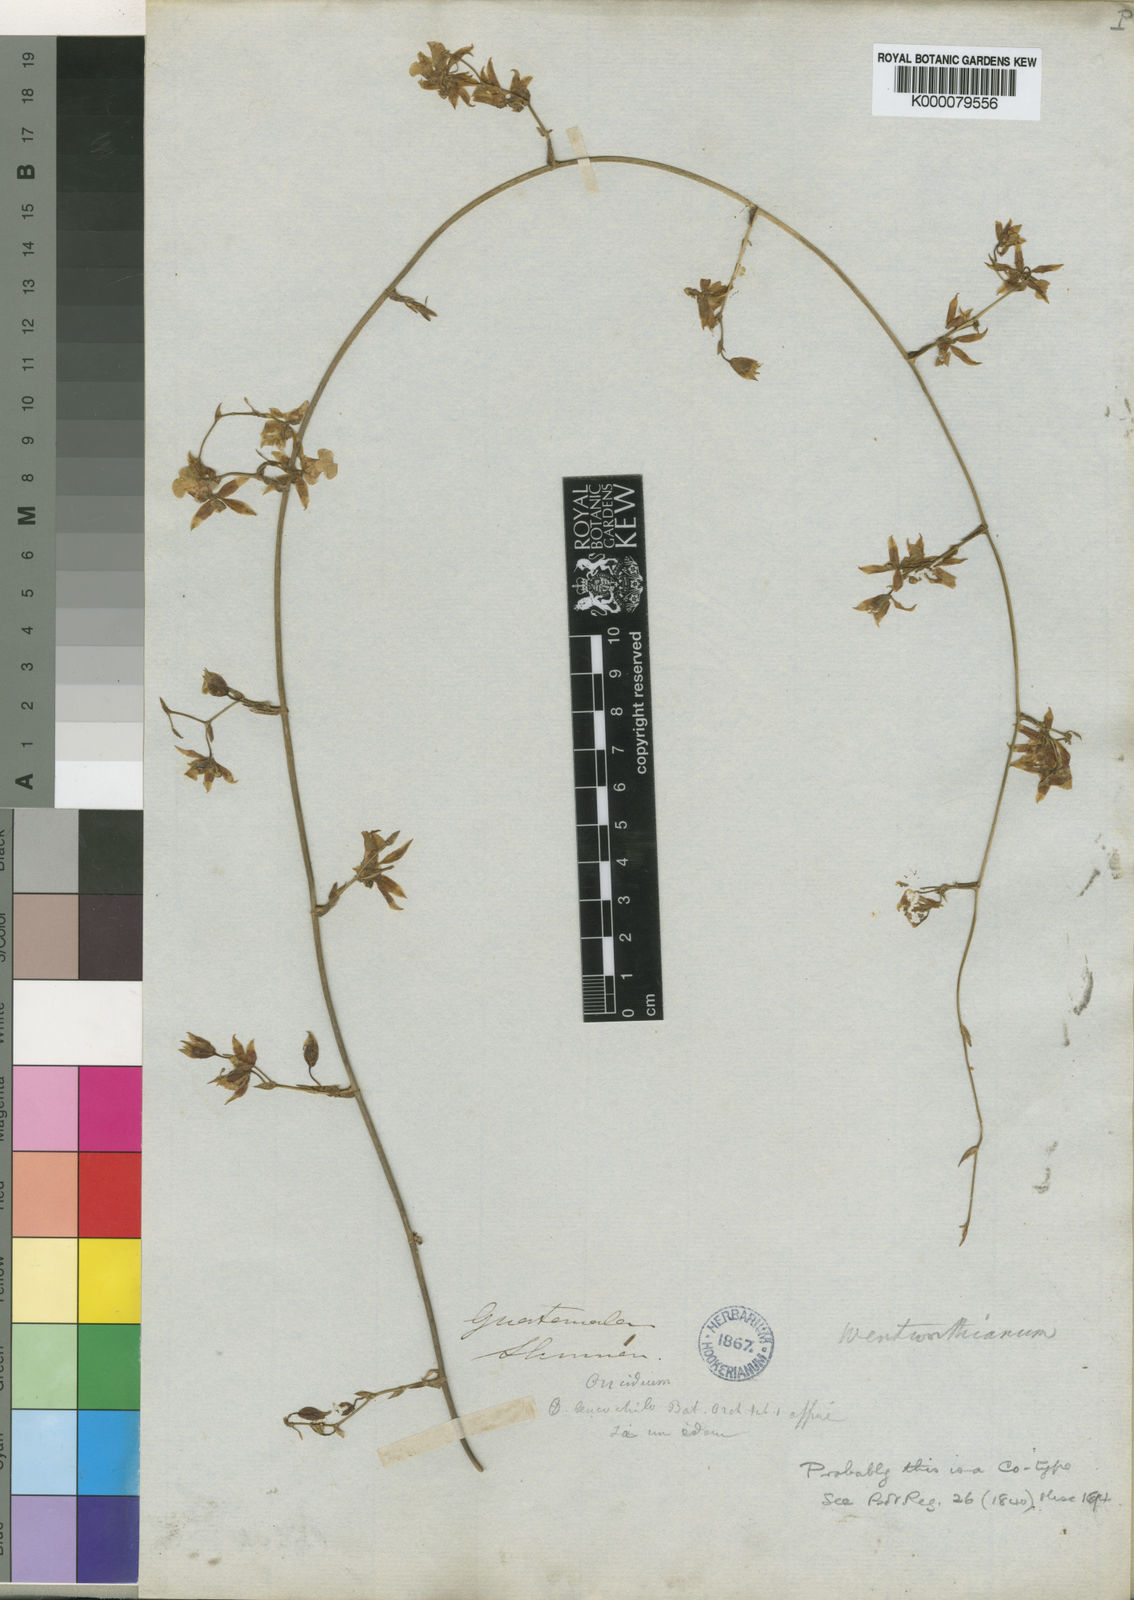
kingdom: Plantae
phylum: Tracheophyta
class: Liliopsida
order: Asparagales
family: Orchidaceae
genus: Oncidium
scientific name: Oncidium wentworthianum
